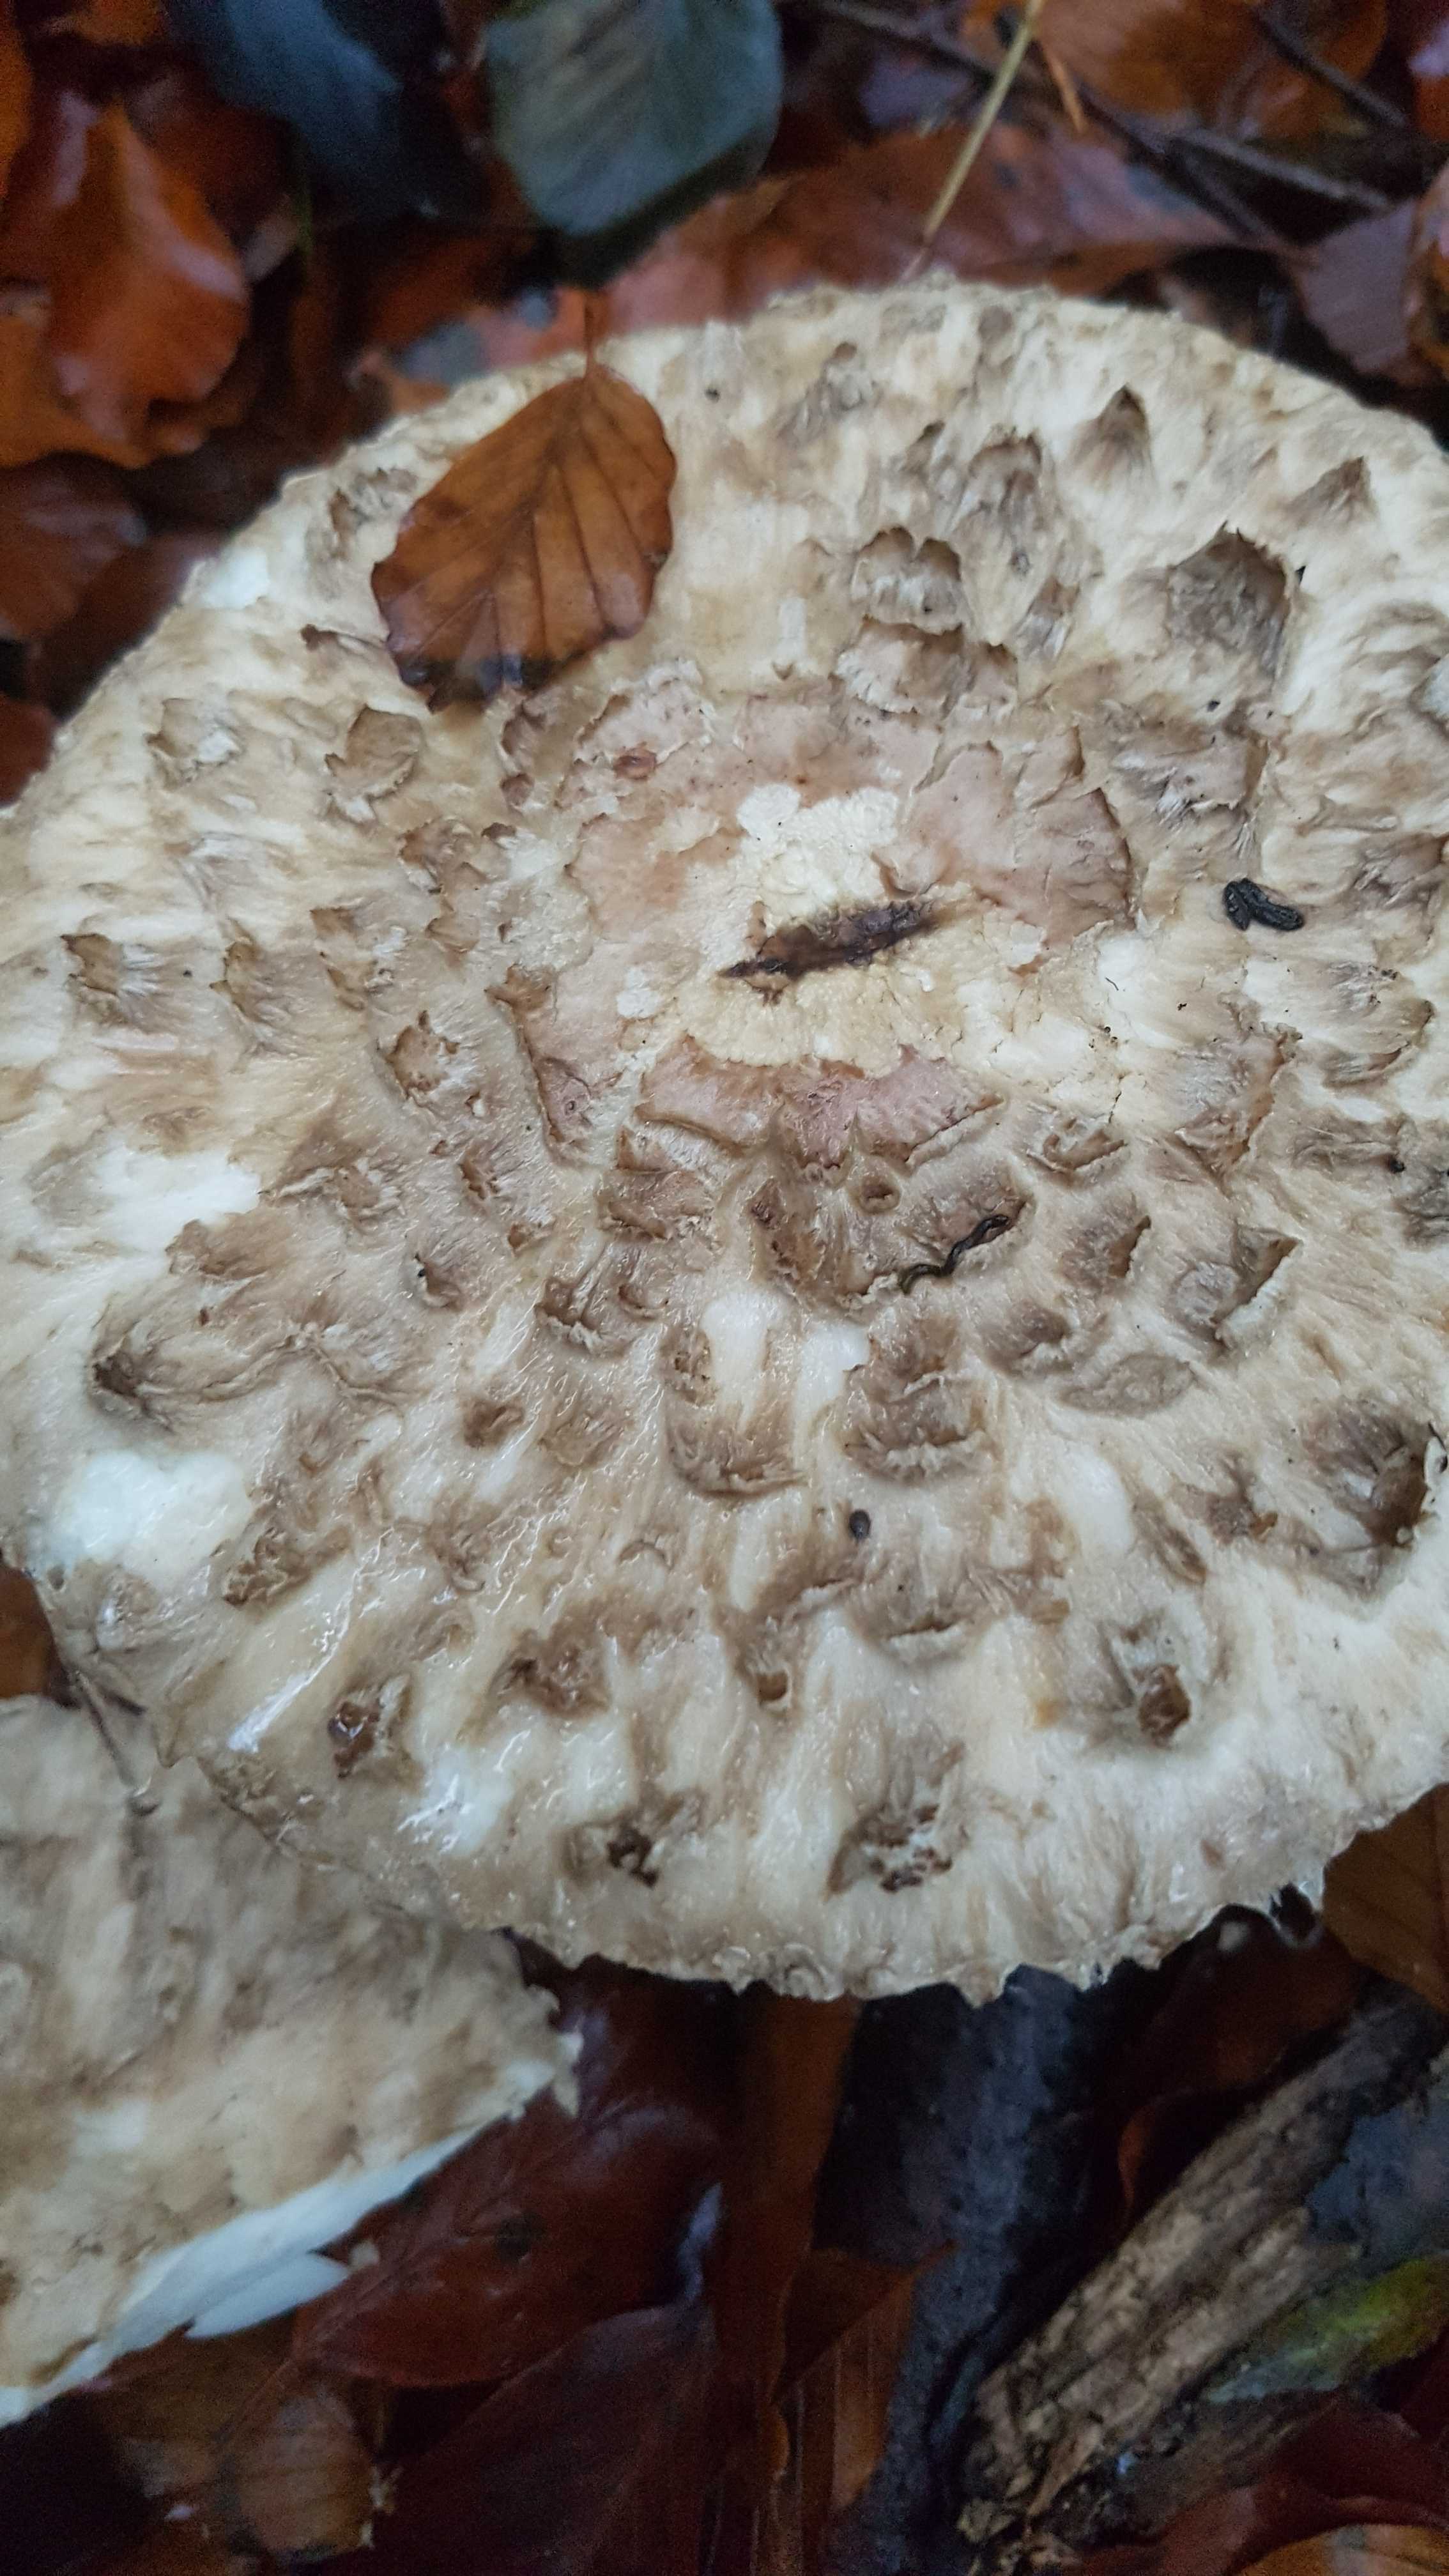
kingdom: Fungi
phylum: Basidiomycota
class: Agaricomycetes
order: Agaricales
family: Agaricaceae
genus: Chlorophyllum
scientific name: Chlorophyllum olivieri
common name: almindelig rabarberhat
